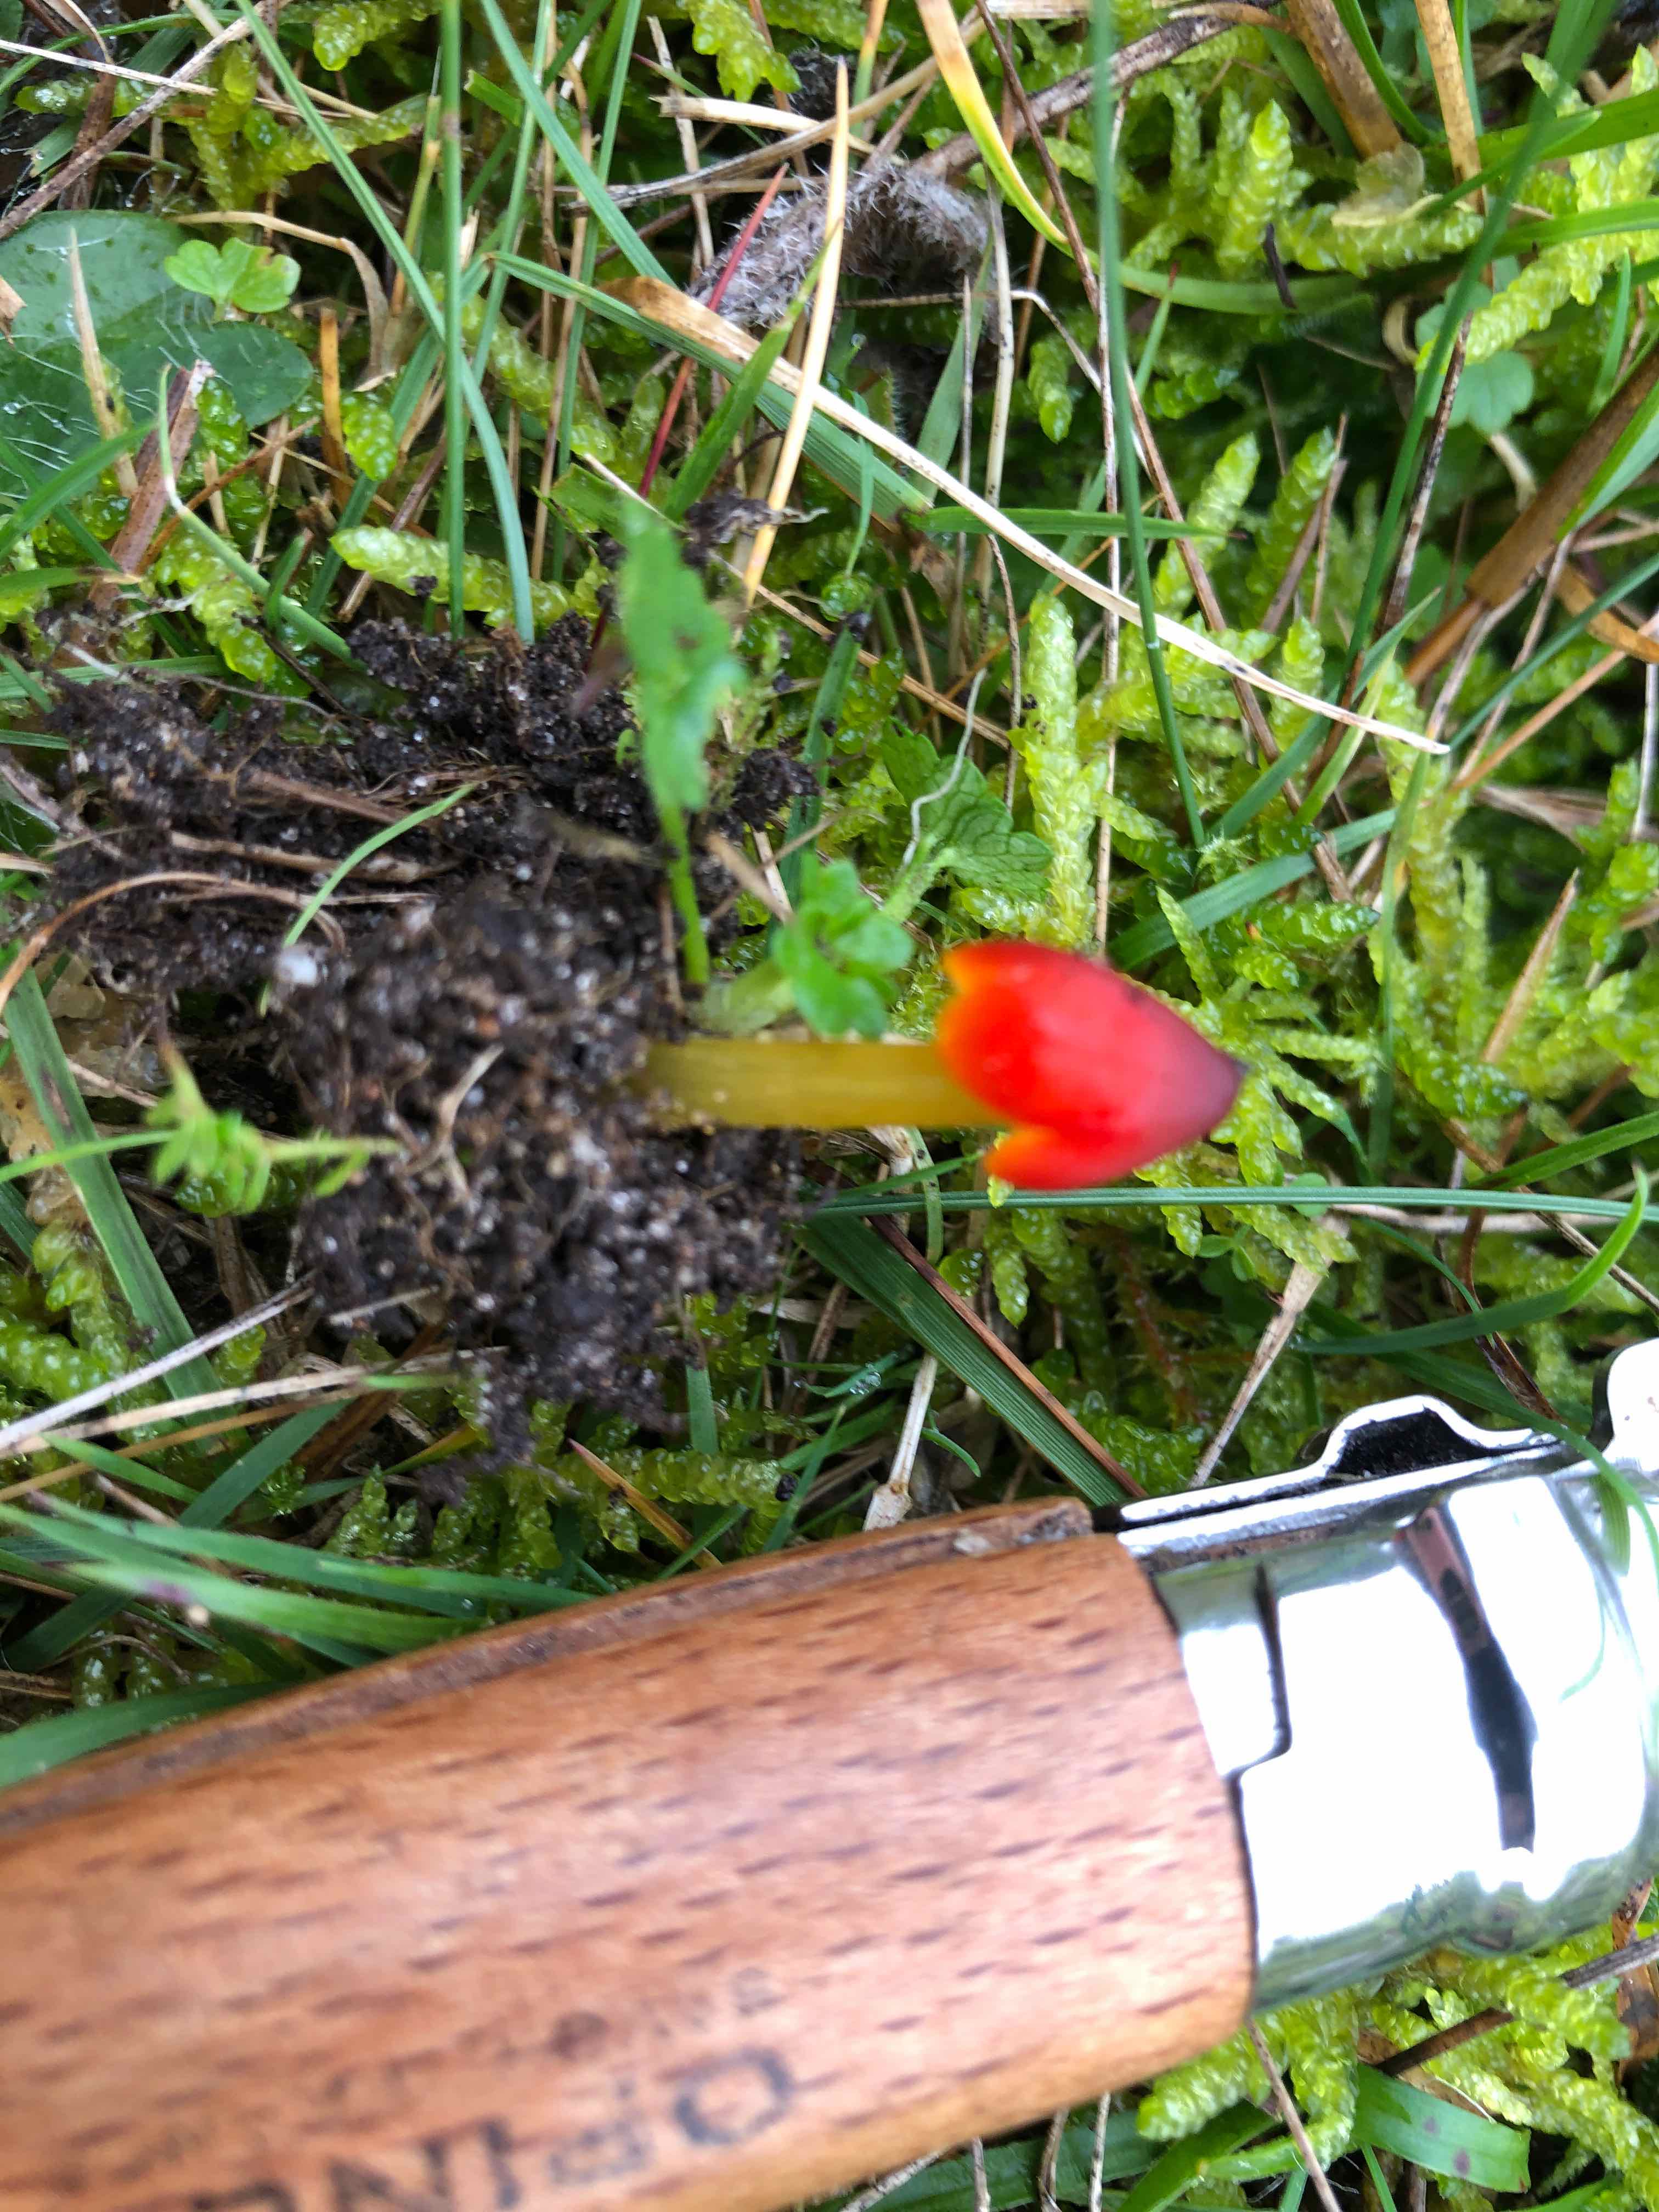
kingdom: Fungi
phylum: Basidiomycota
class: Agaricomycetes
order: Agaricales
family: Hygrophoraceae
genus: Hygrocybe
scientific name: Hygrocybe conica
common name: kegle-vokshat
